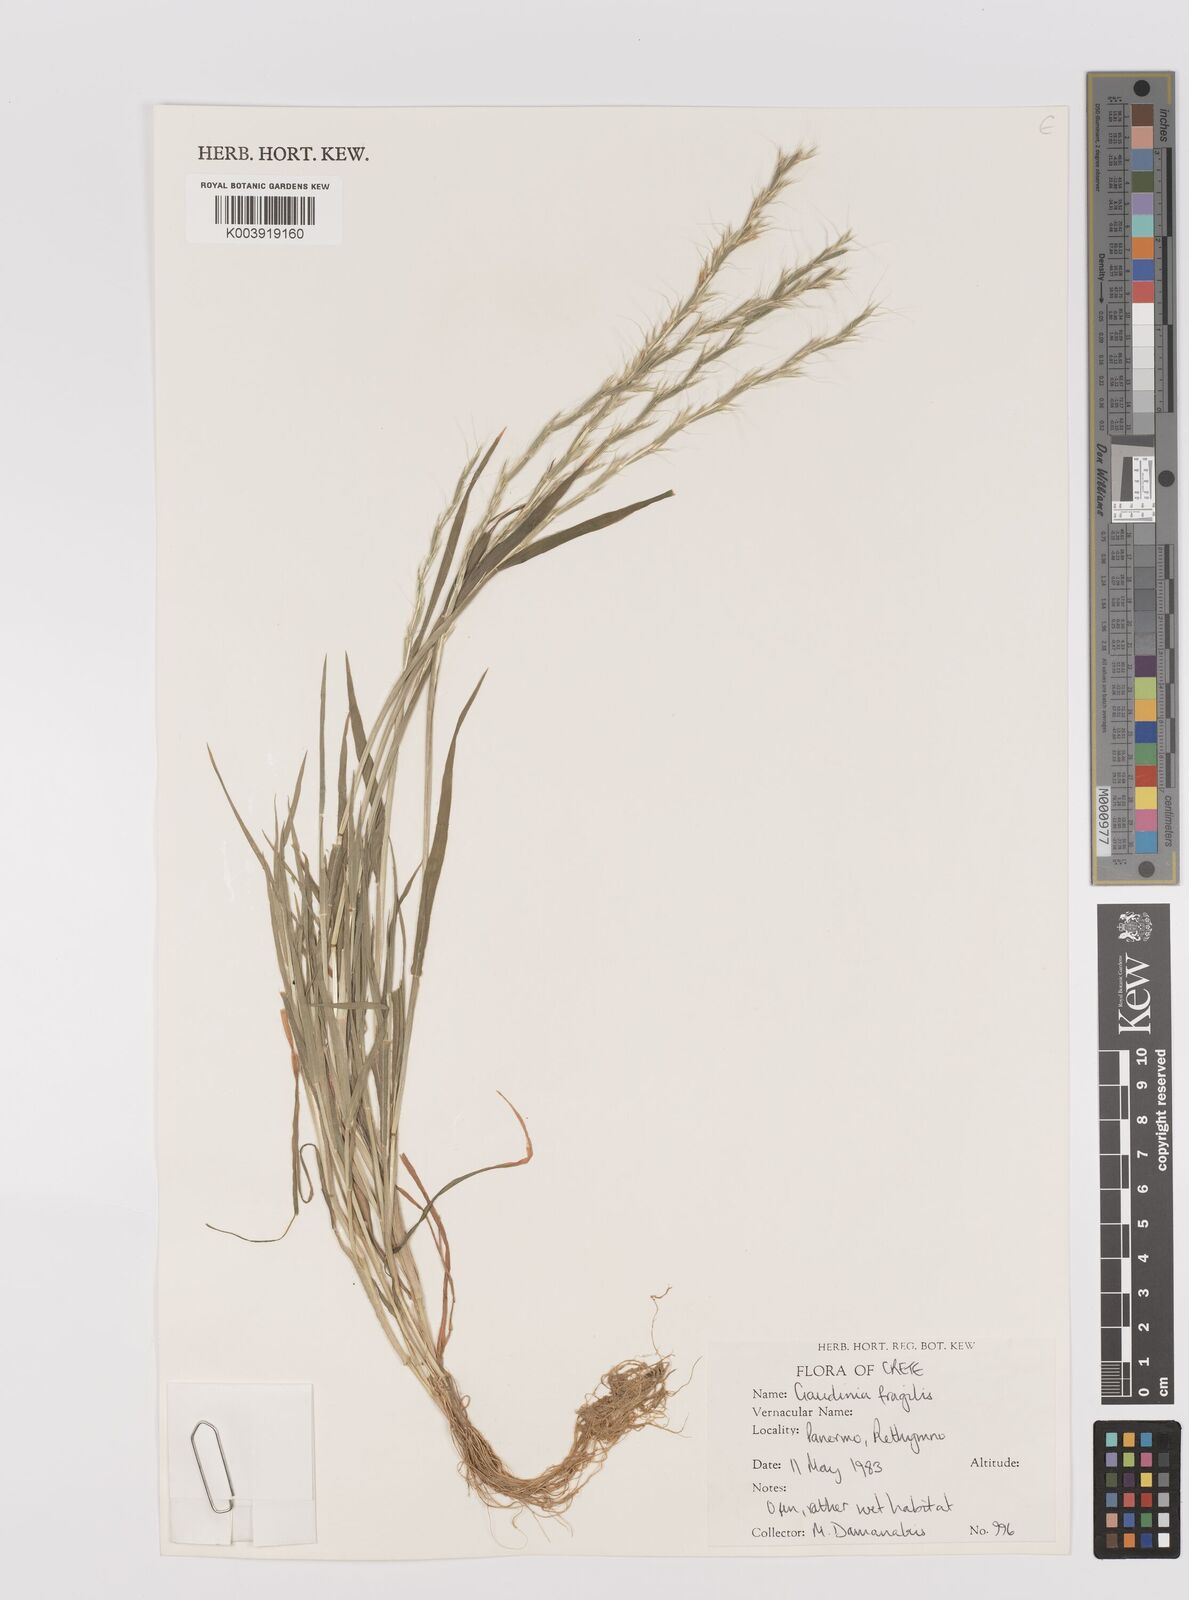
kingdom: Plantae
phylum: Tracheophyta
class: Liliopsida
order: Poales
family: Poaceae
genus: Gaudinia
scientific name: Gaudinia fragilis
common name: French oat-grass
